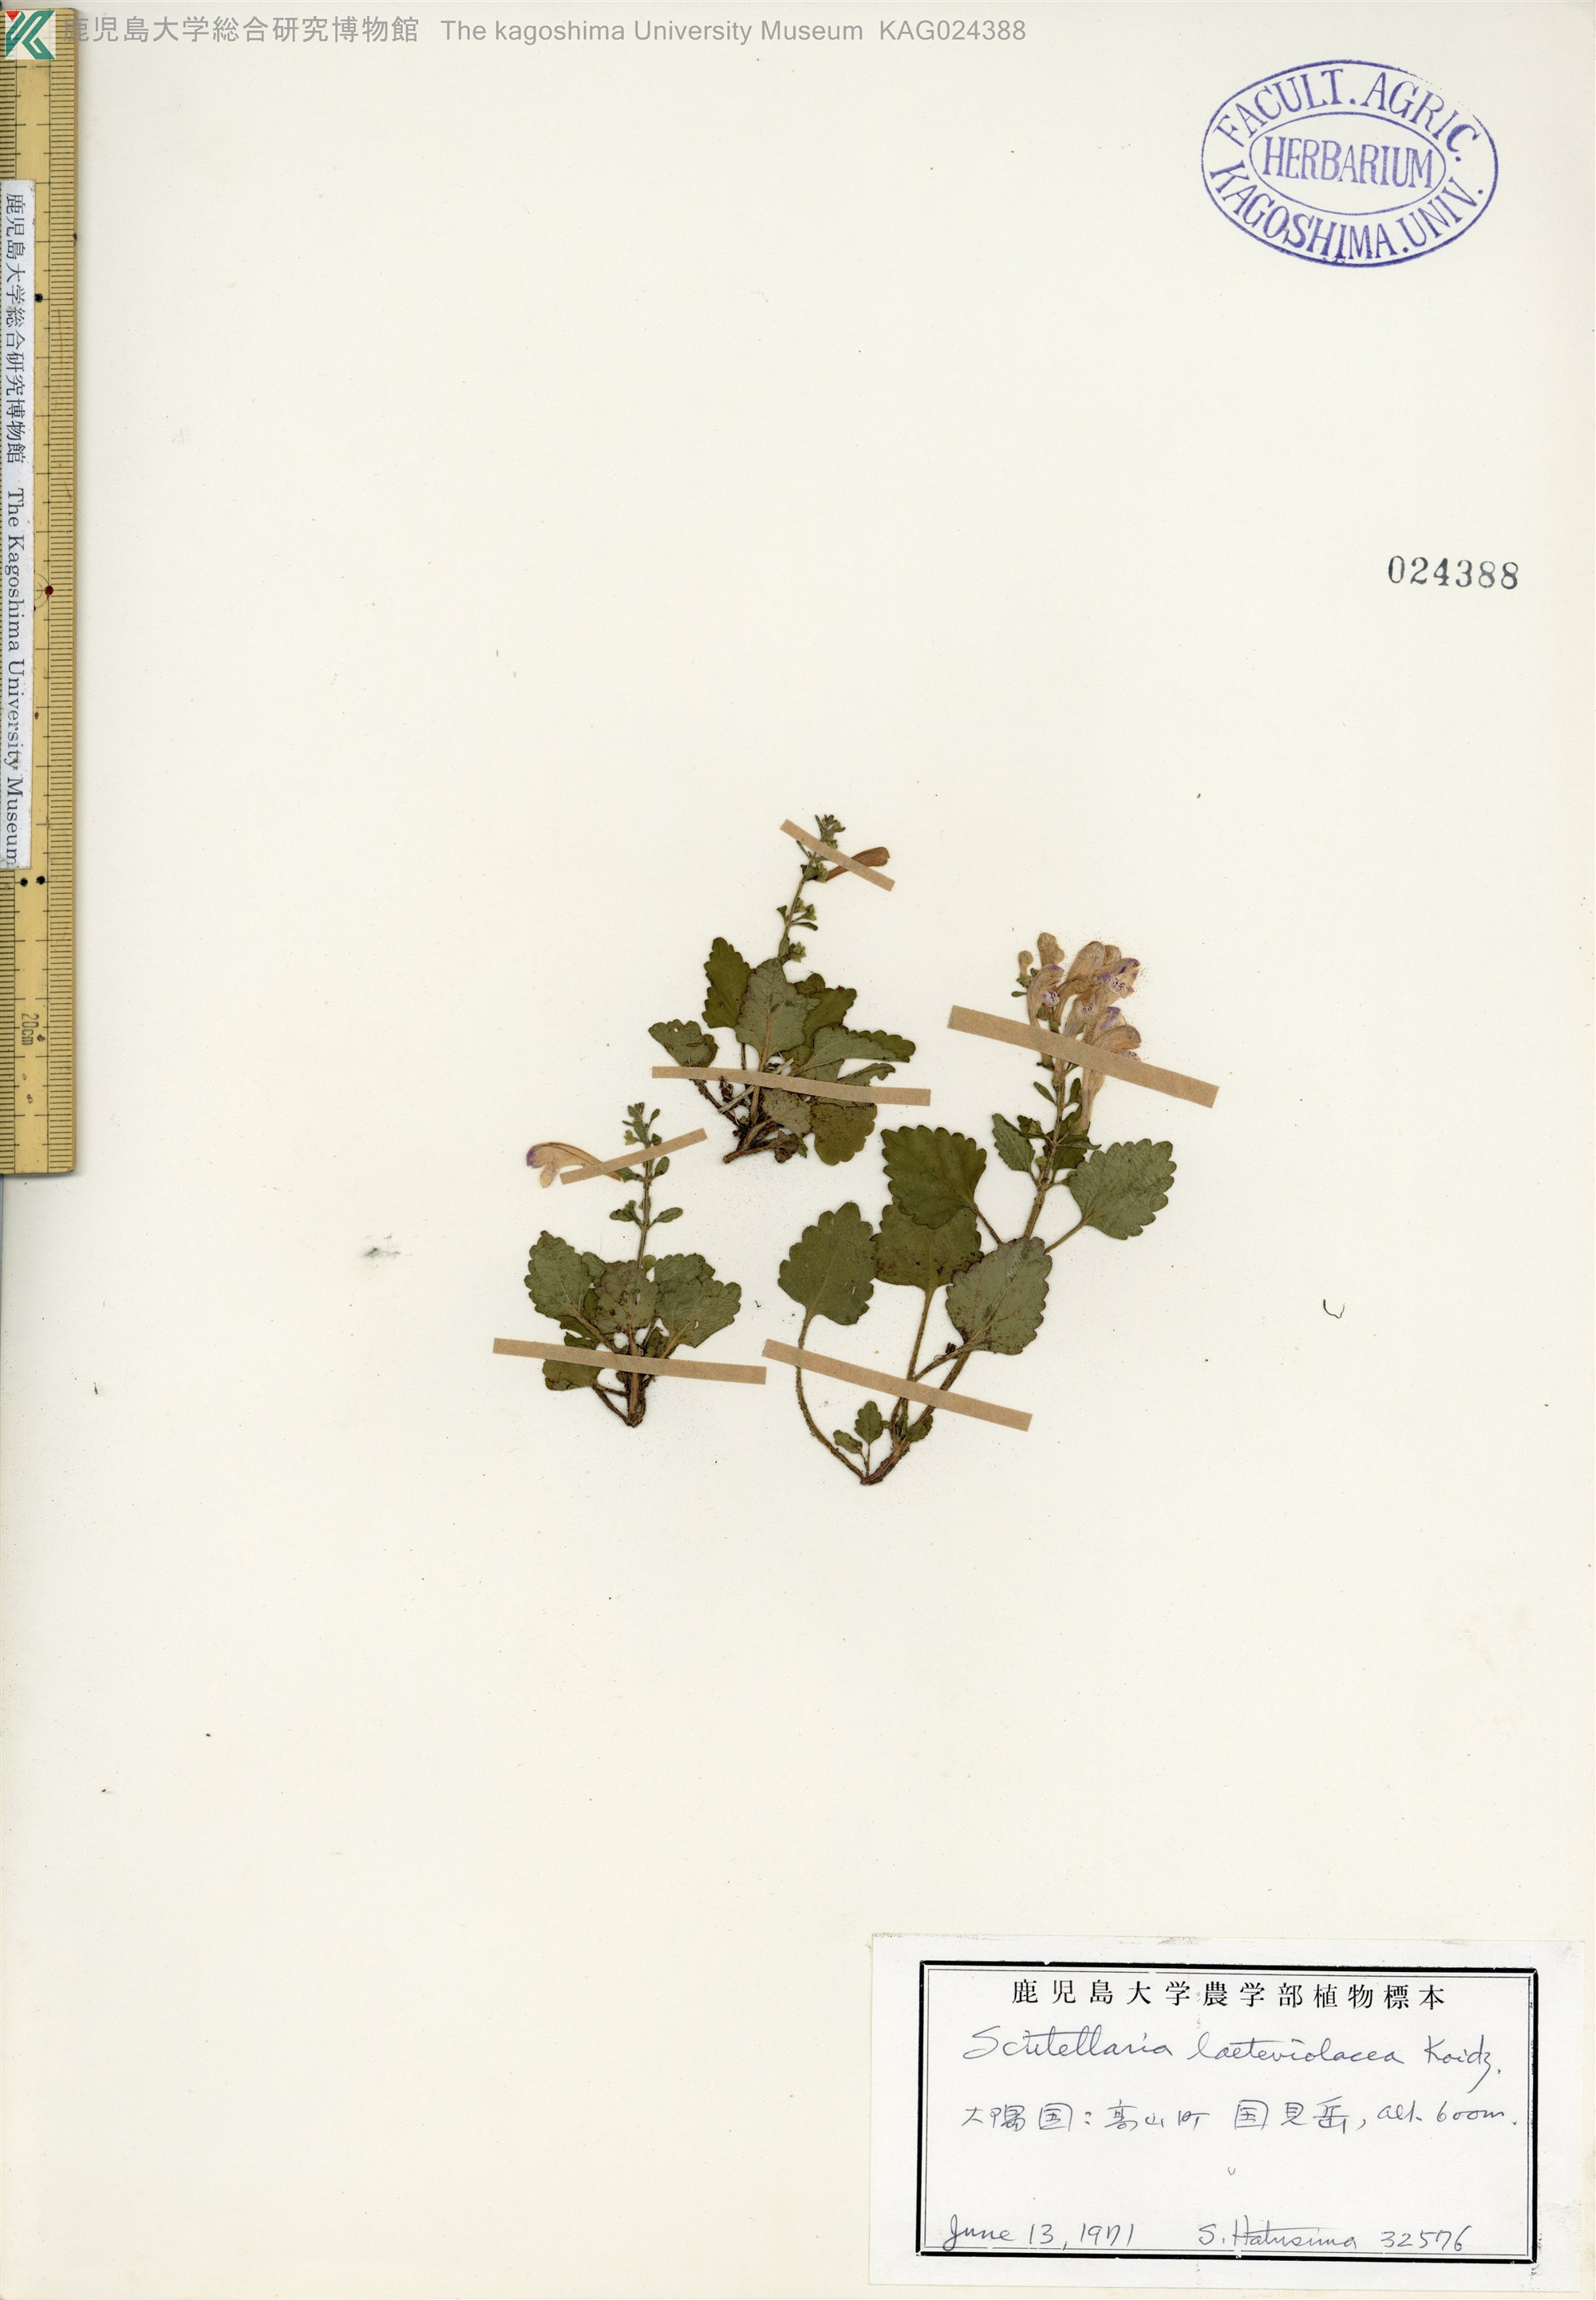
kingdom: Plantae
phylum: Tracheophyta
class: Magnoliopsida
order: Lamiales
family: Lamiaceae
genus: Scutellaria
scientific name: Scutellaria laeteviolacea
